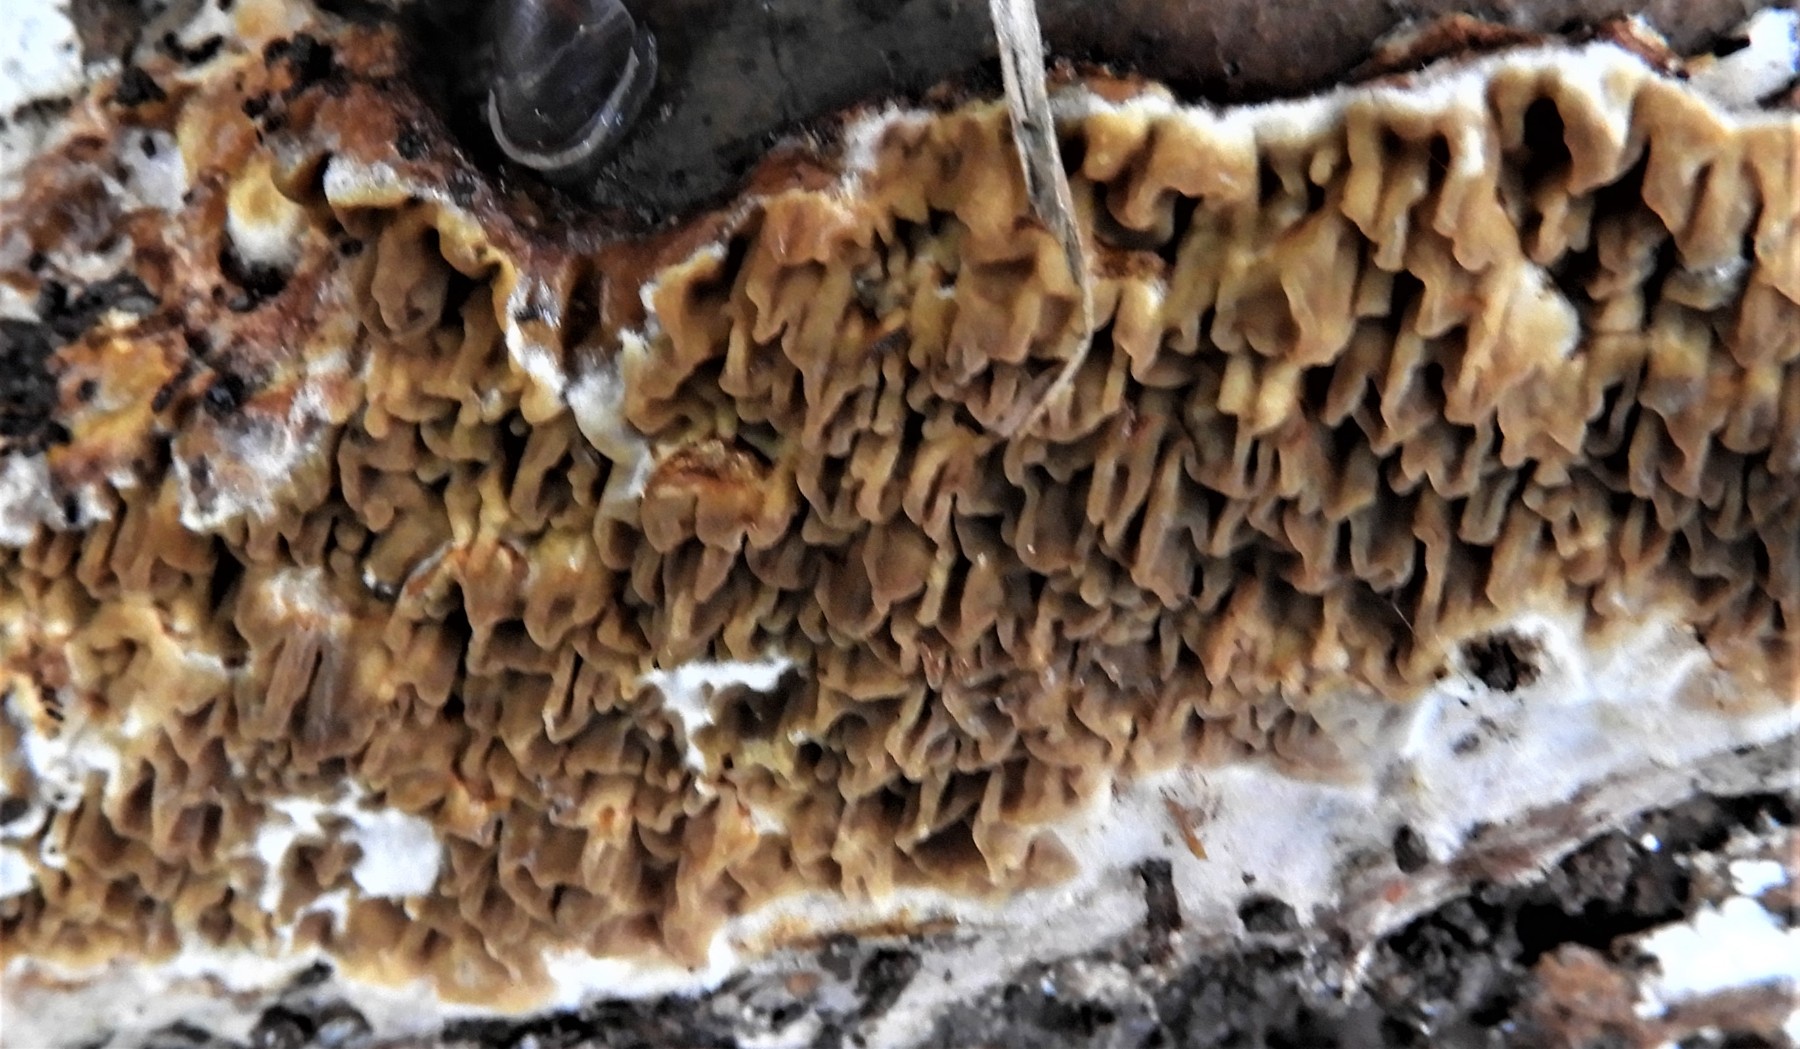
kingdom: Fungi
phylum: Basidiomycota
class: Agaricomycetes
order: Boletales
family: Serpulaceae
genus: Serpula
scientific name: Serpula himantioides
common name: tyndkødet hussvamp
